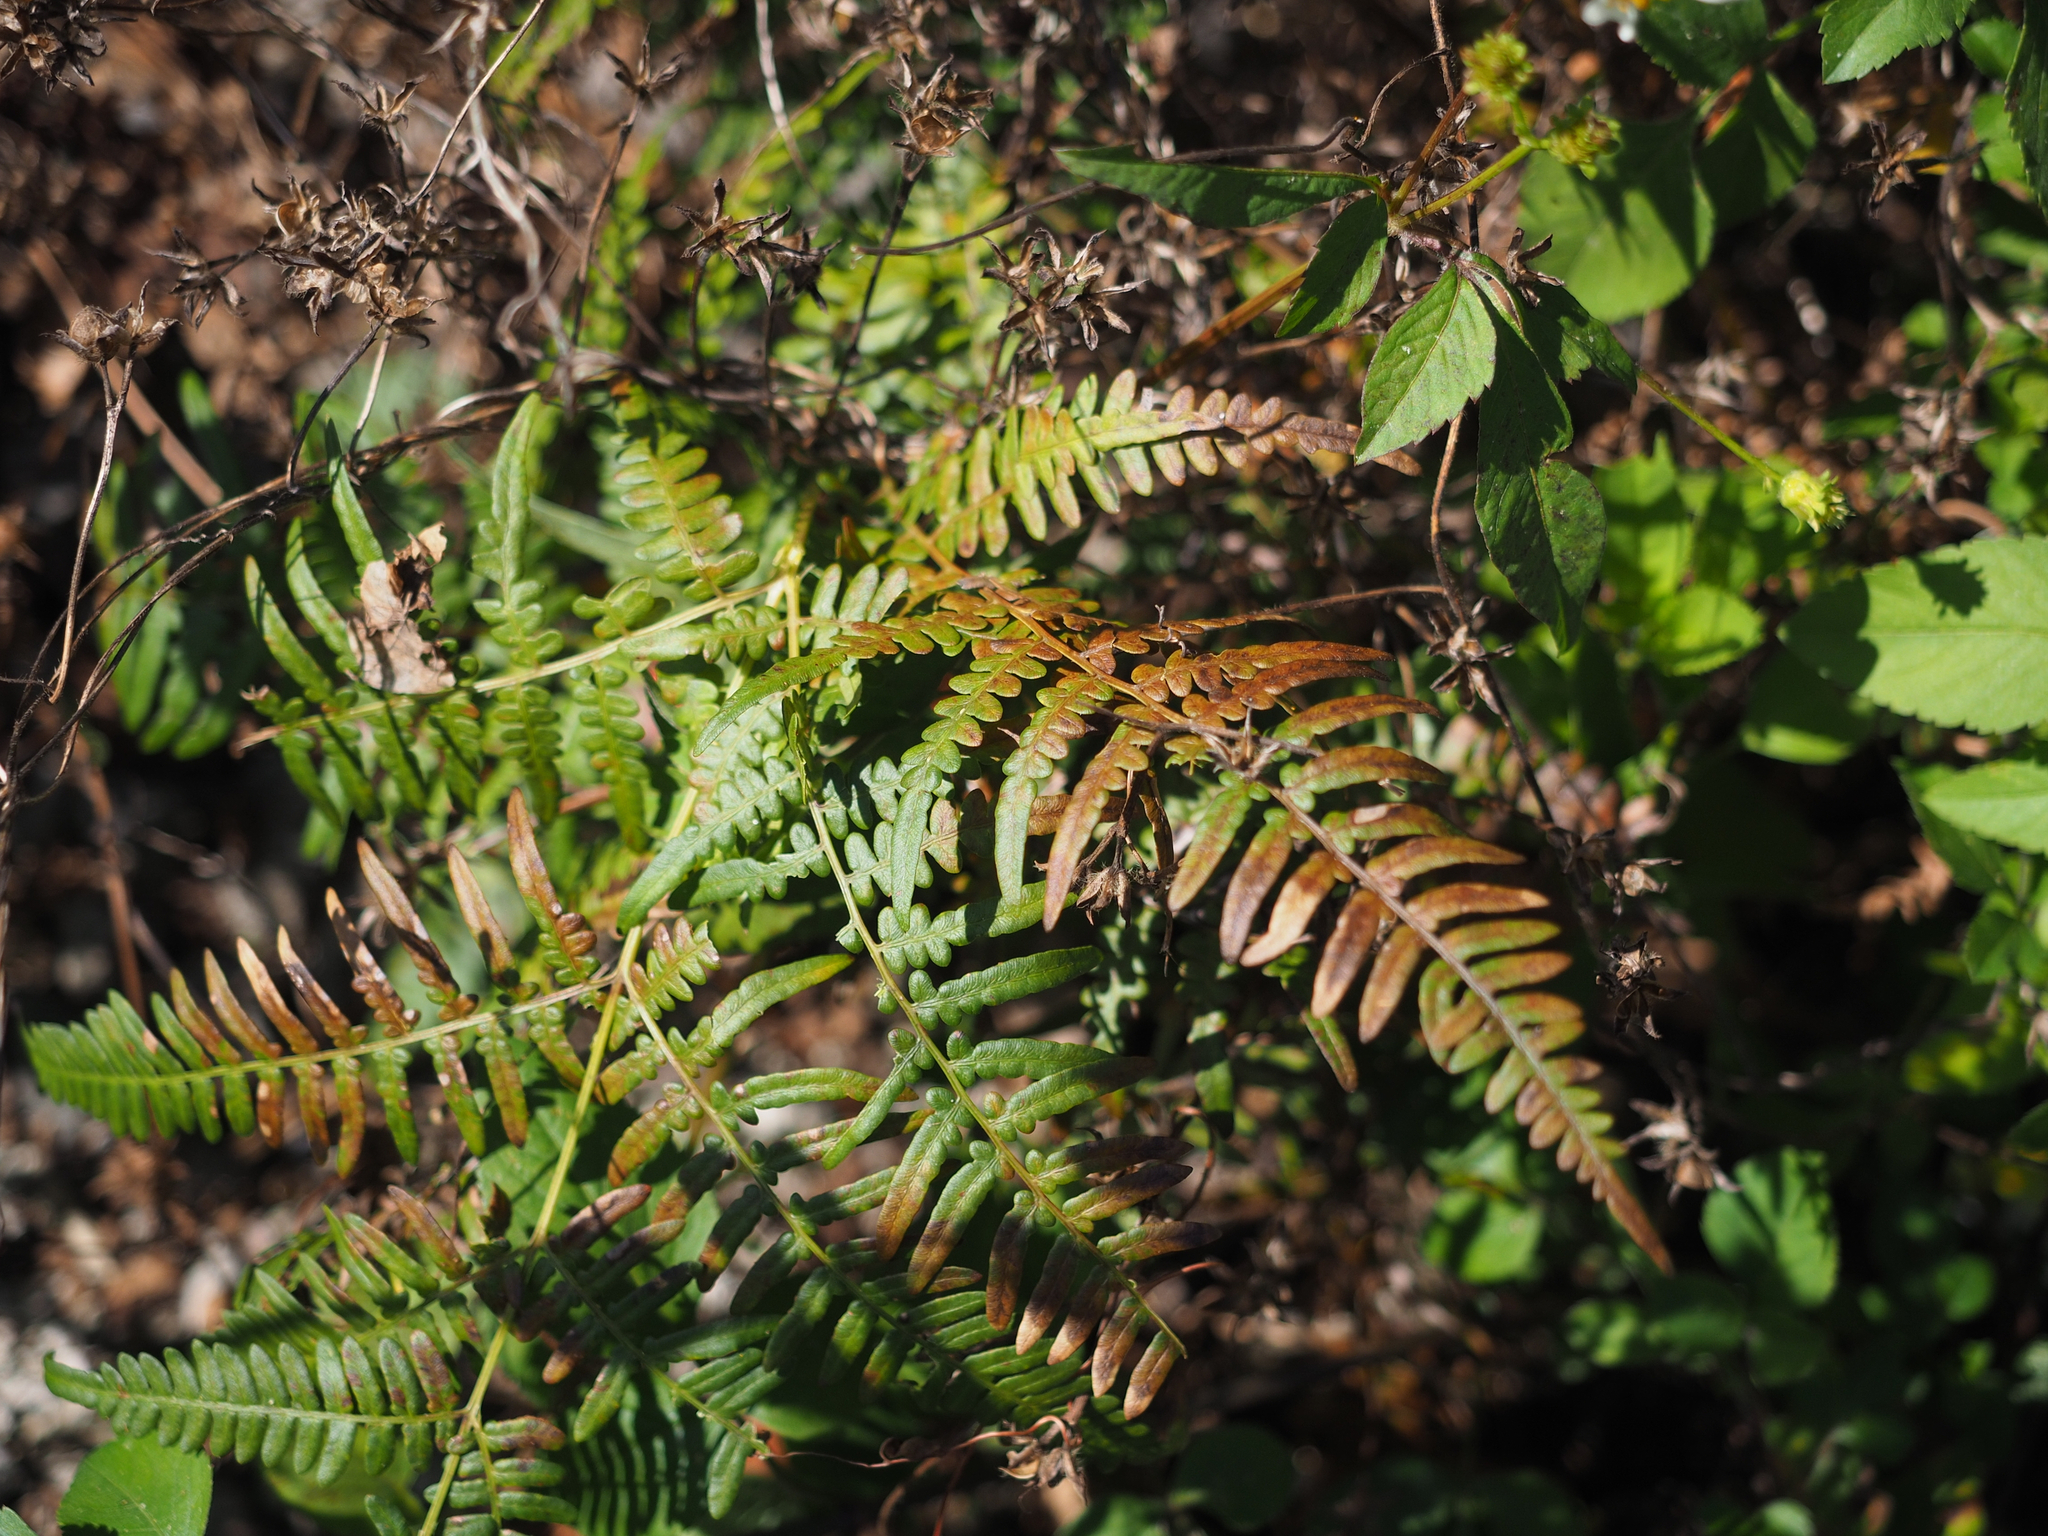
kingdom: Plantae
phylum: Tracheophyta
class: Polypodiopsida
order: Polypodiales
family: Dennstaedtiaceae
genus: Pteridium
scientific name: Pteridium aquilinum
